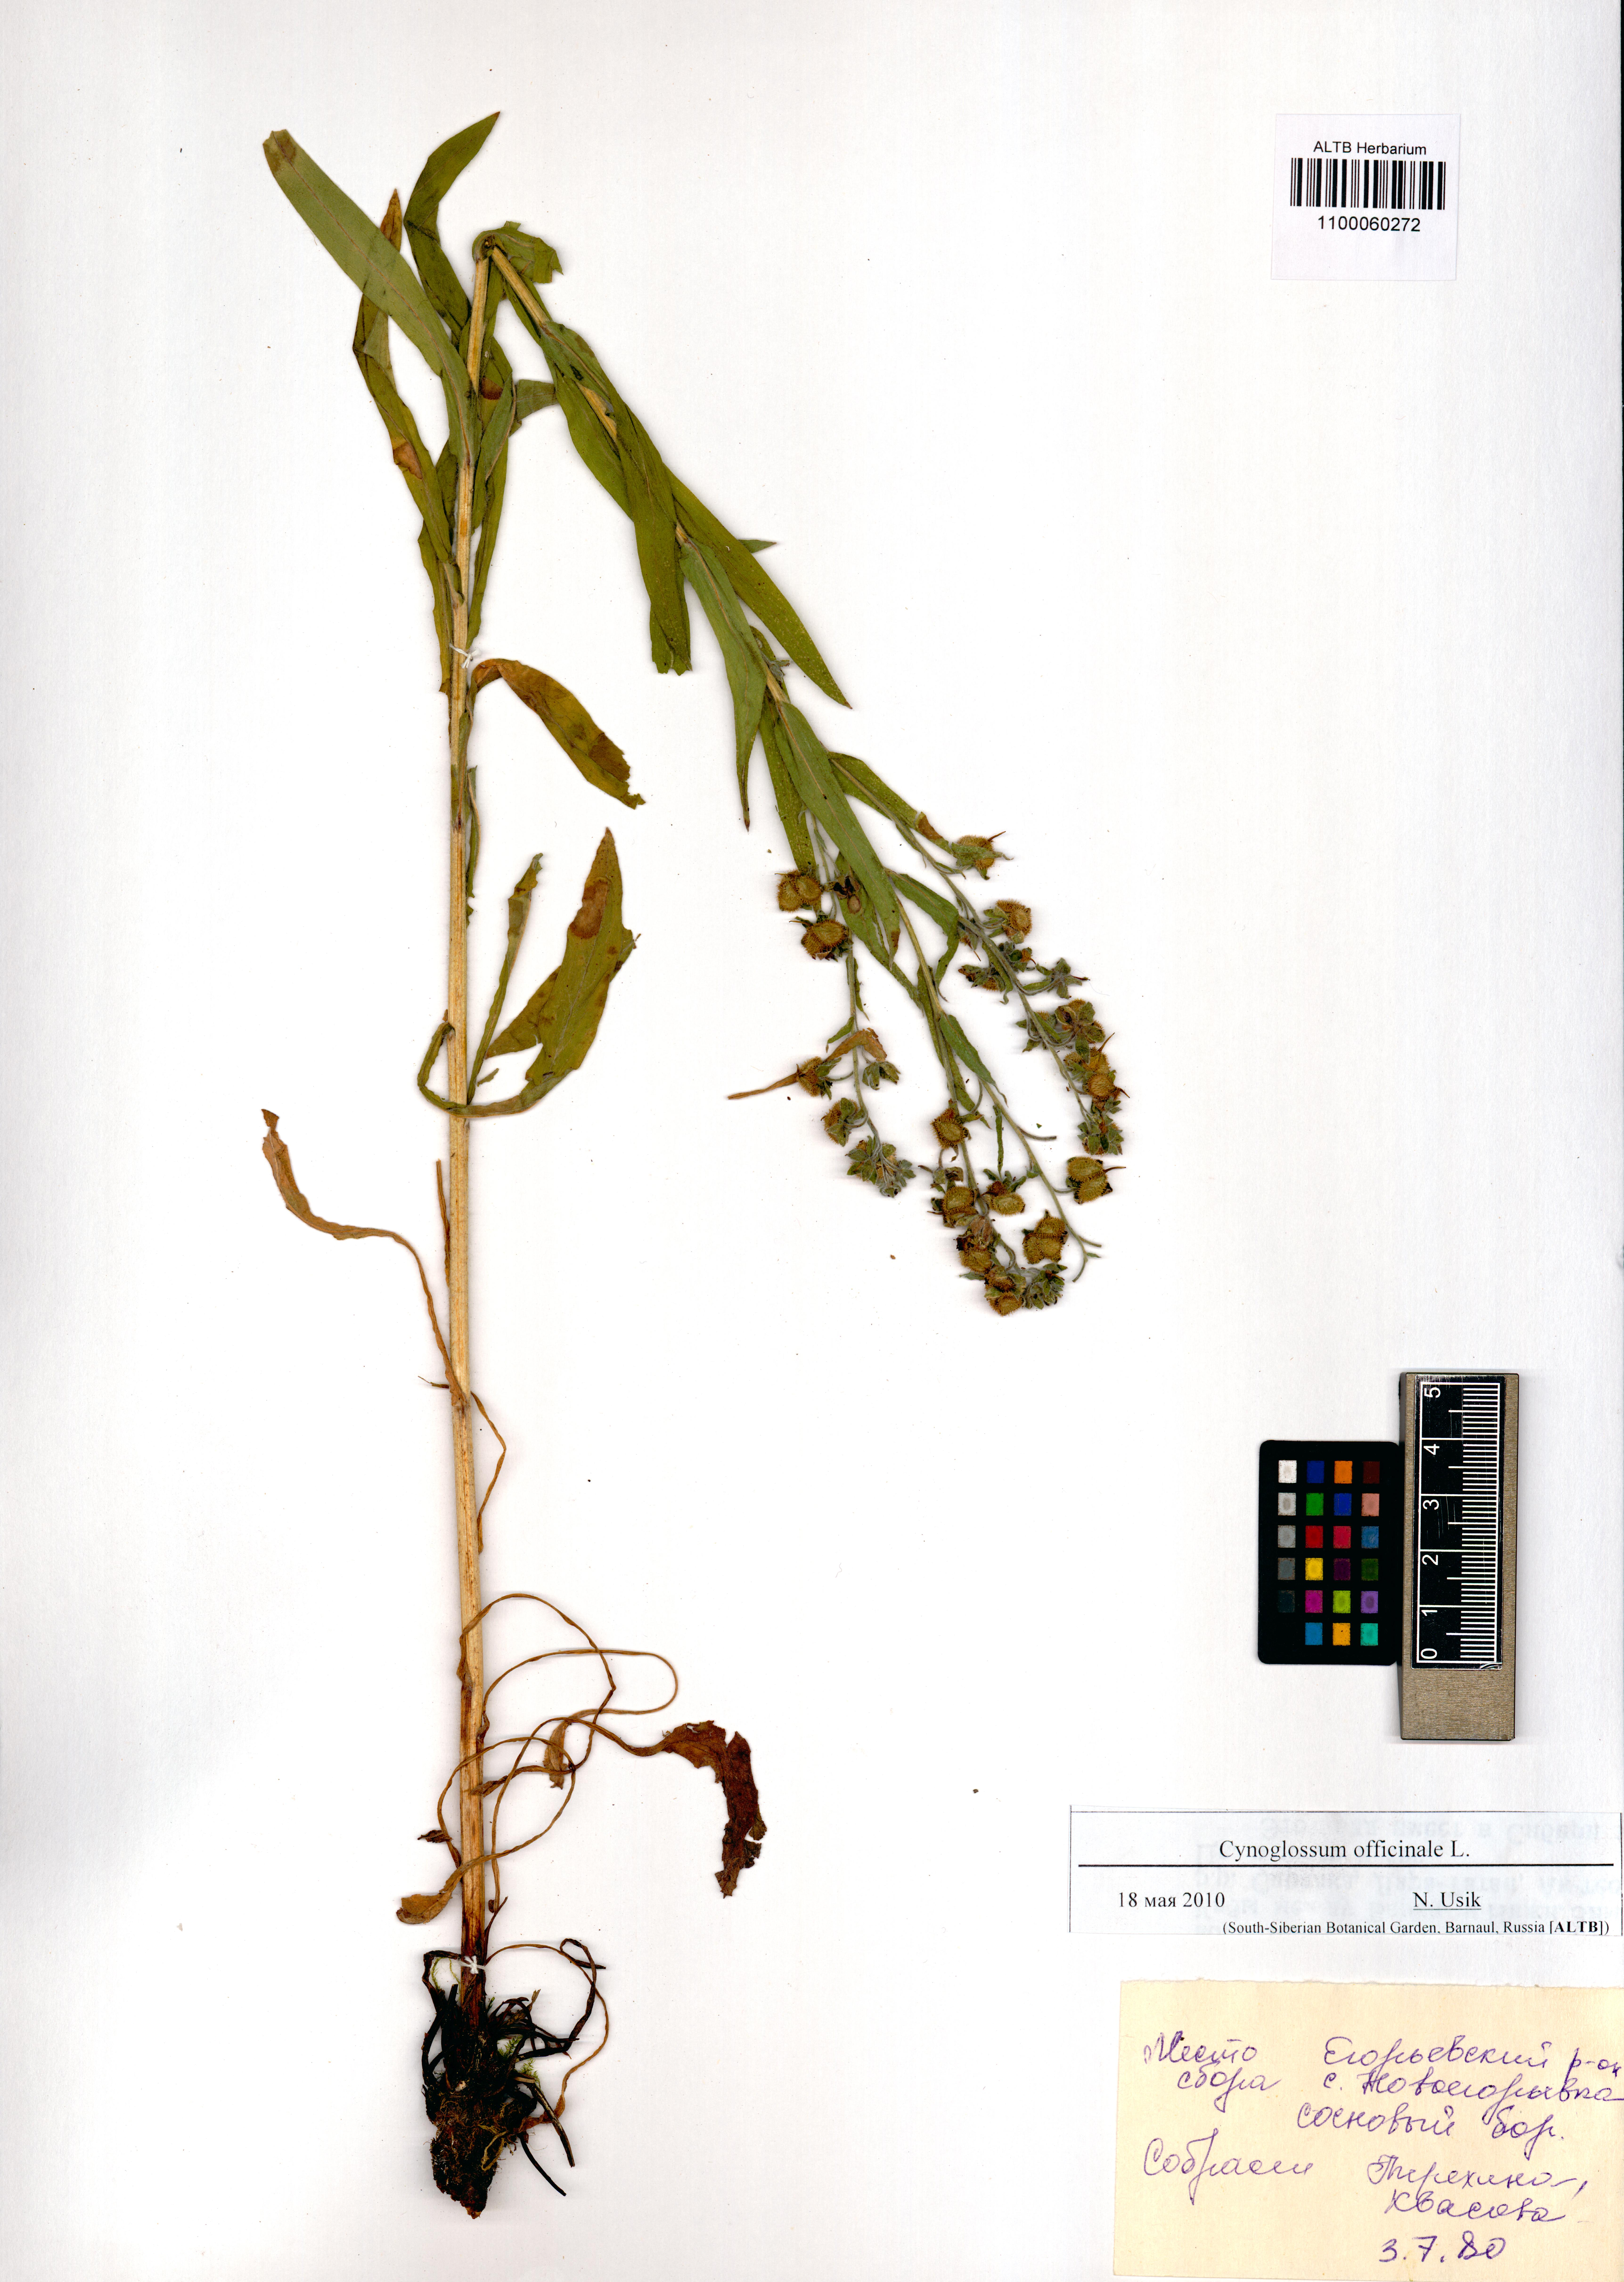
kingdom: Plantae
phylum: Tracheophyta
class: Magnoliopsida
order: Boraginales
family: Boraginaceae
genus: Cynoglossum
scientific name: Cynoglossum officinale
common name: Hound's-tongue
